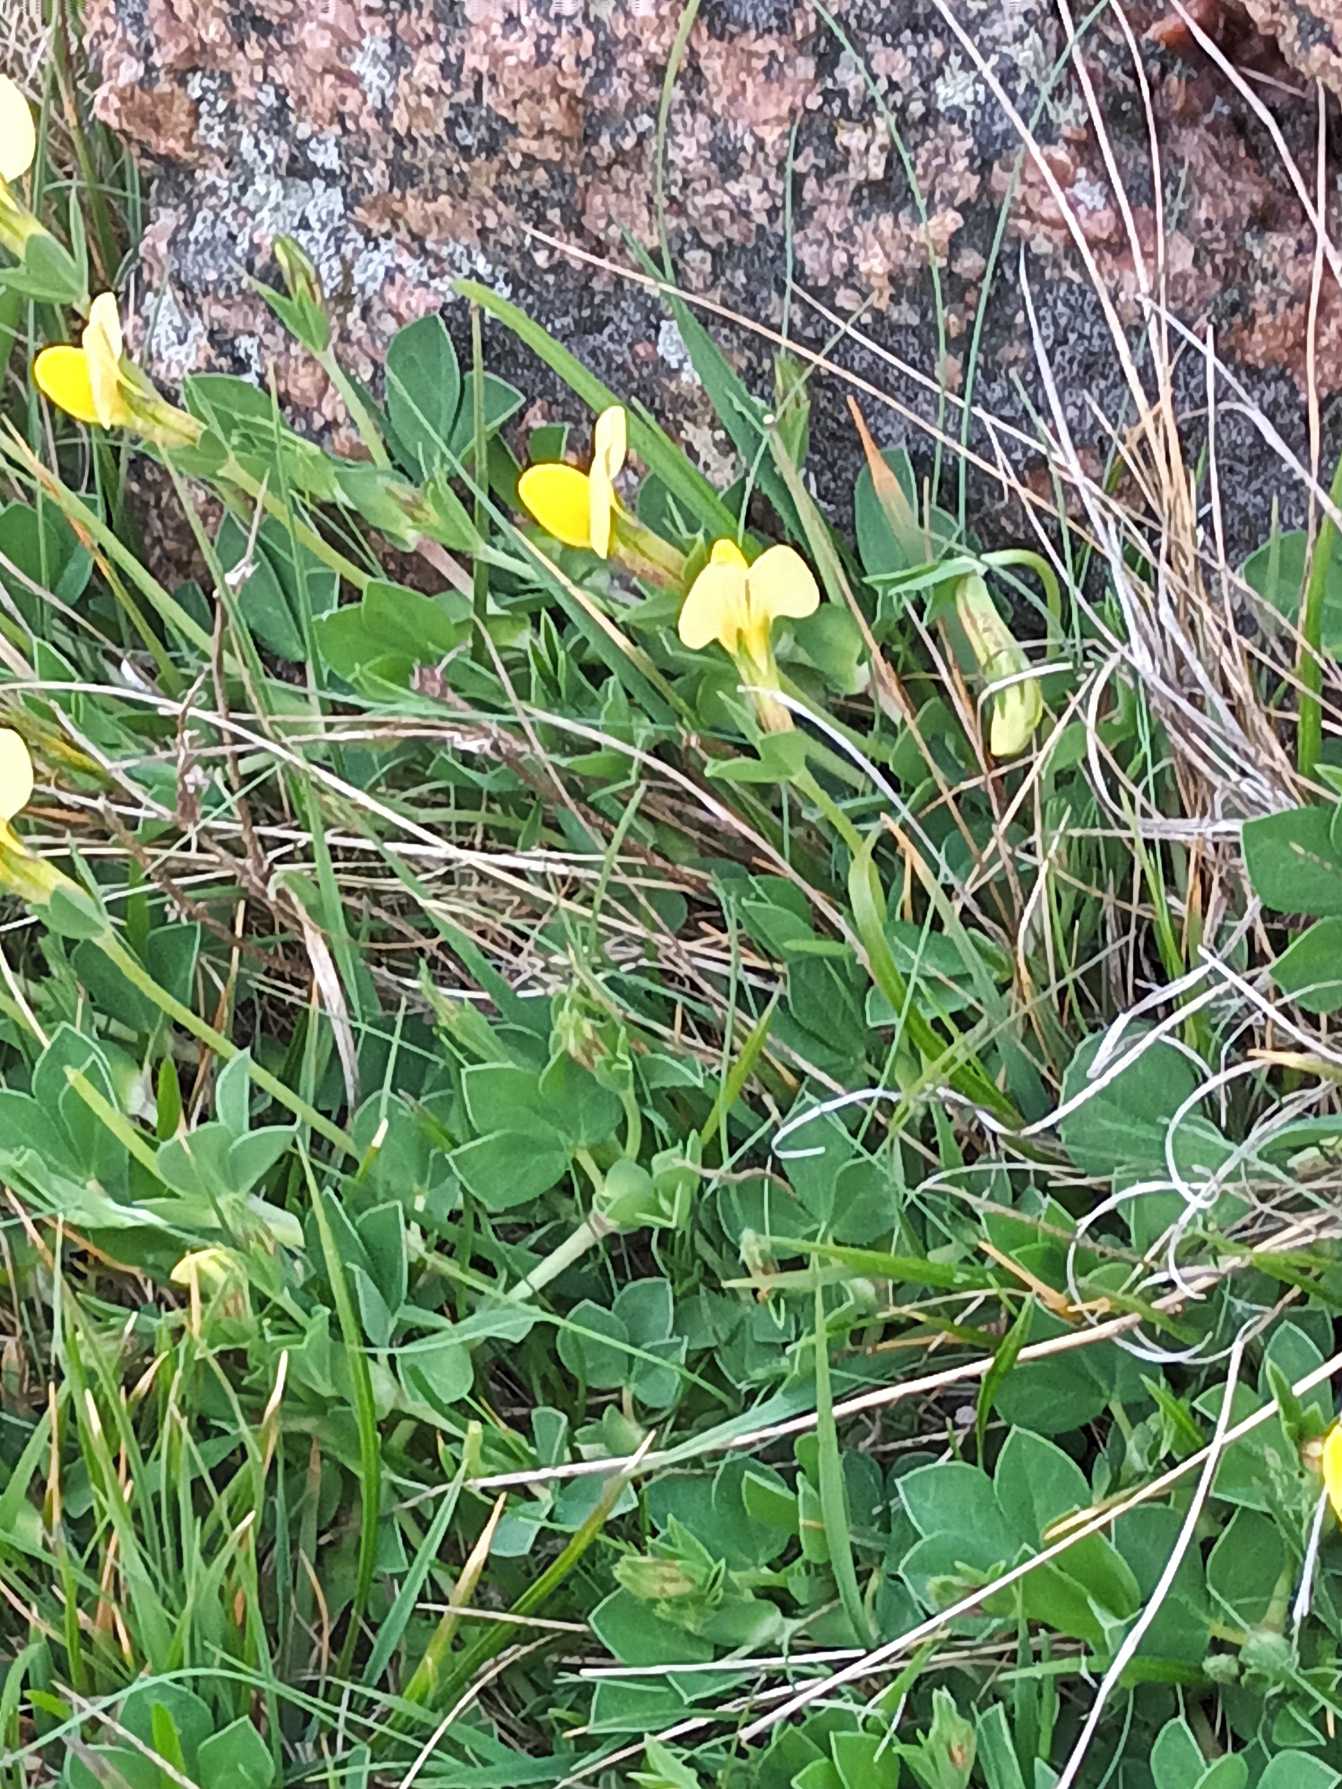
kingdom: Plantae
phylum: Tracheophyta
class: Magnoliopsida
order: Fabales
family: Fabaceae
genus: Lotus
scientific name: Lotus maritimus
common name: Kantbælg
